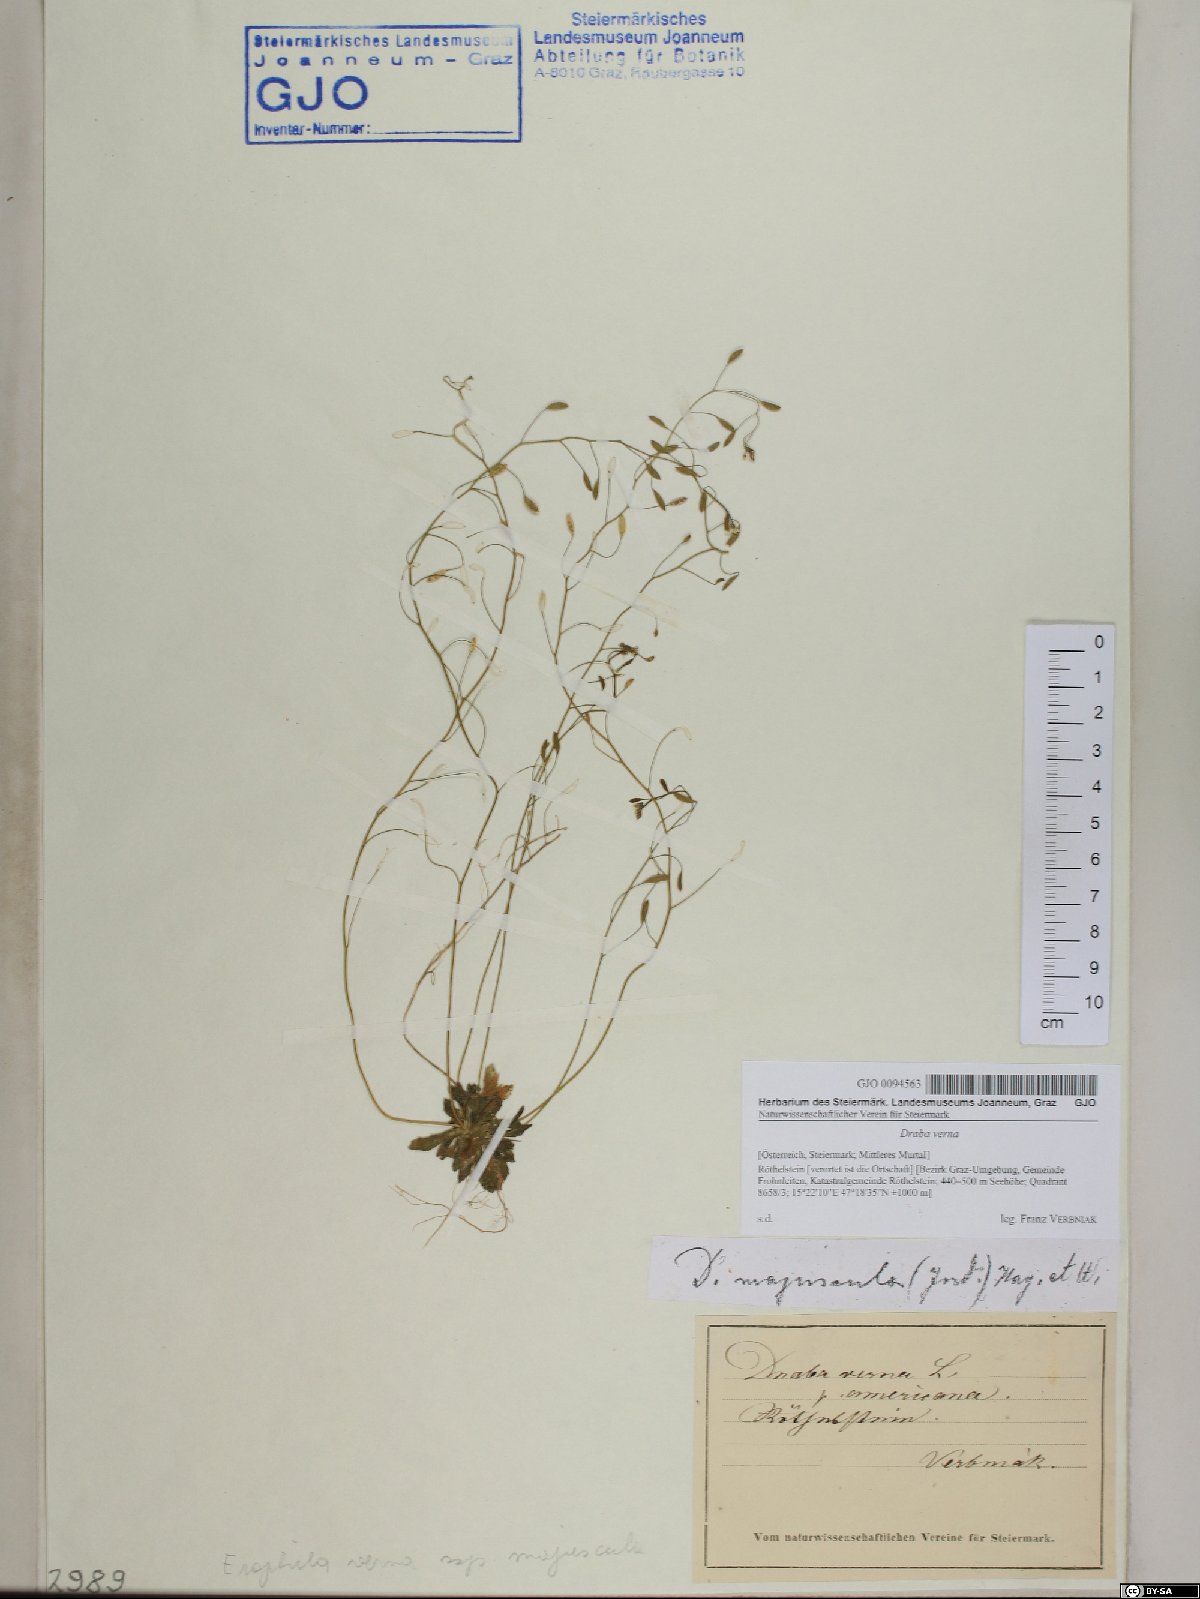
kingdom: Plantae
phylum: Tracheophyta
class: Magnoliopsida
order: Brassicales
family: Brassicaceae
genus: Draba
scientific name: Draba verna
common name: Spring draba
